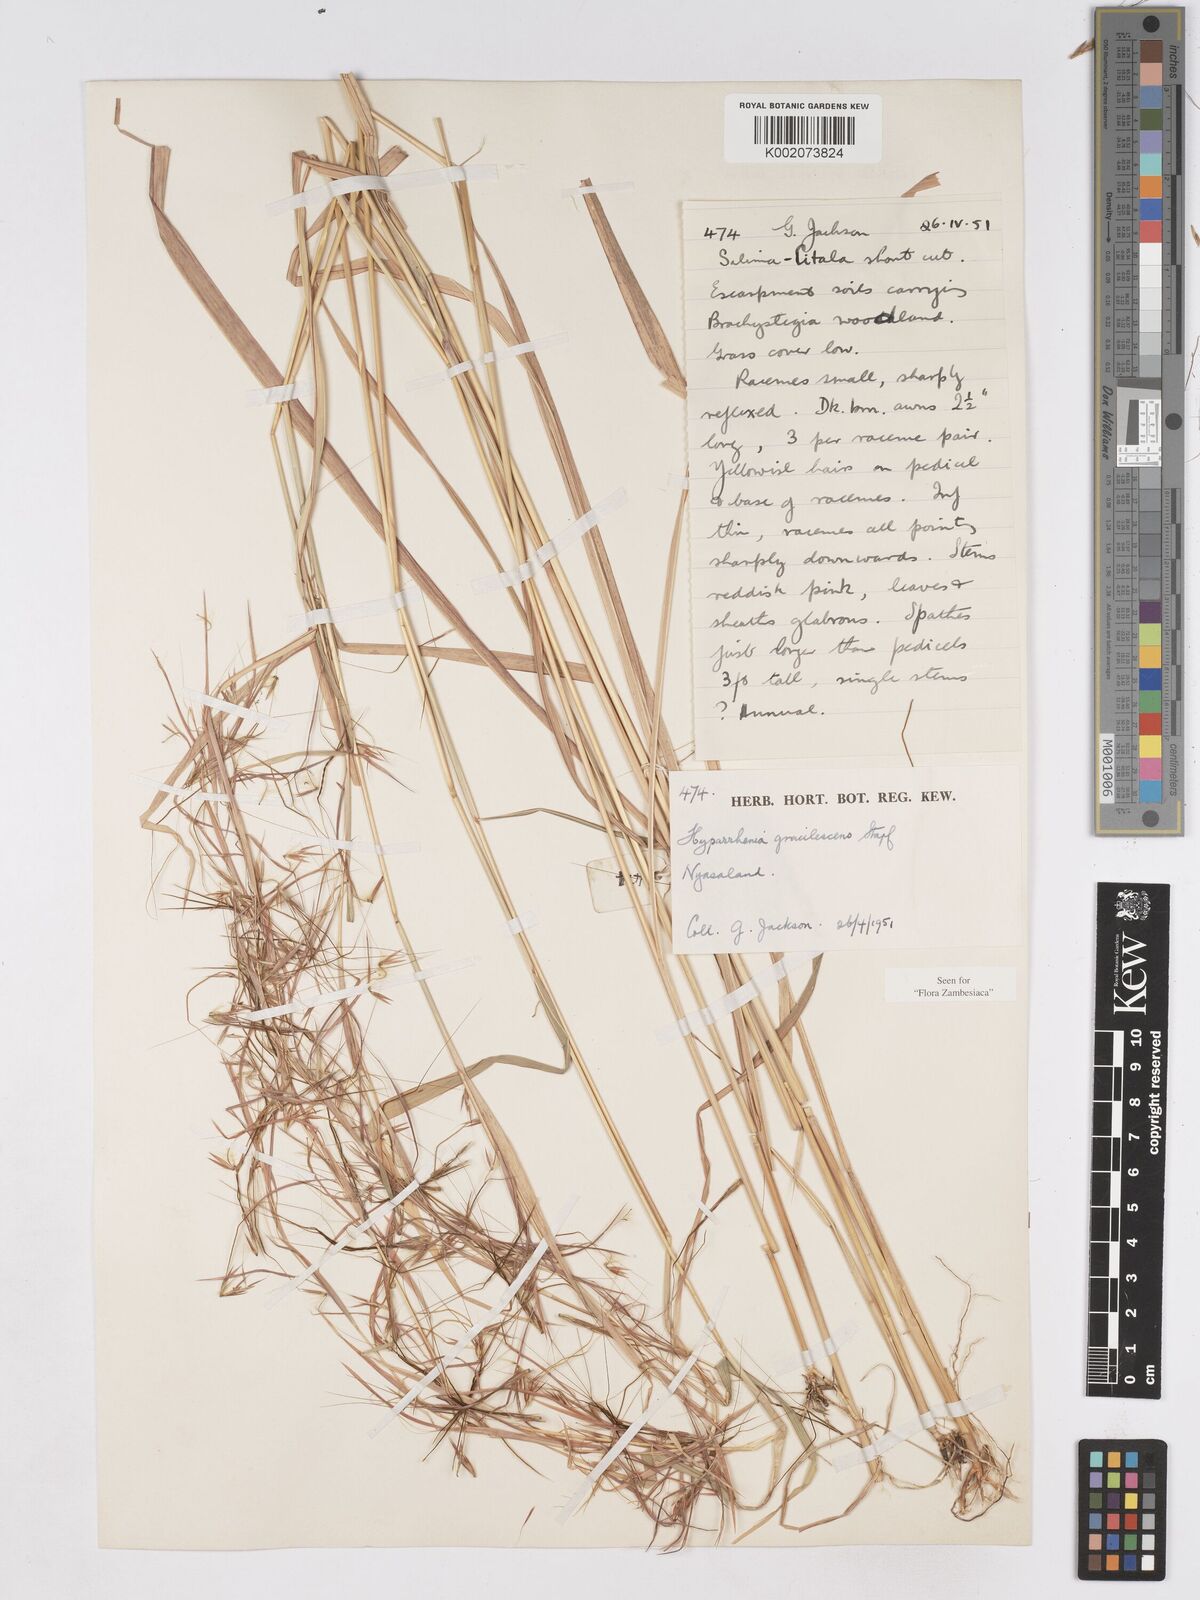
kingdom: Plantae
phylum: Tracheophyta
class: Liliopsida
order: Poales
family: Poaceae
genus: Hyparrhenia
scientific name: Hyparrhenia welwitschii
